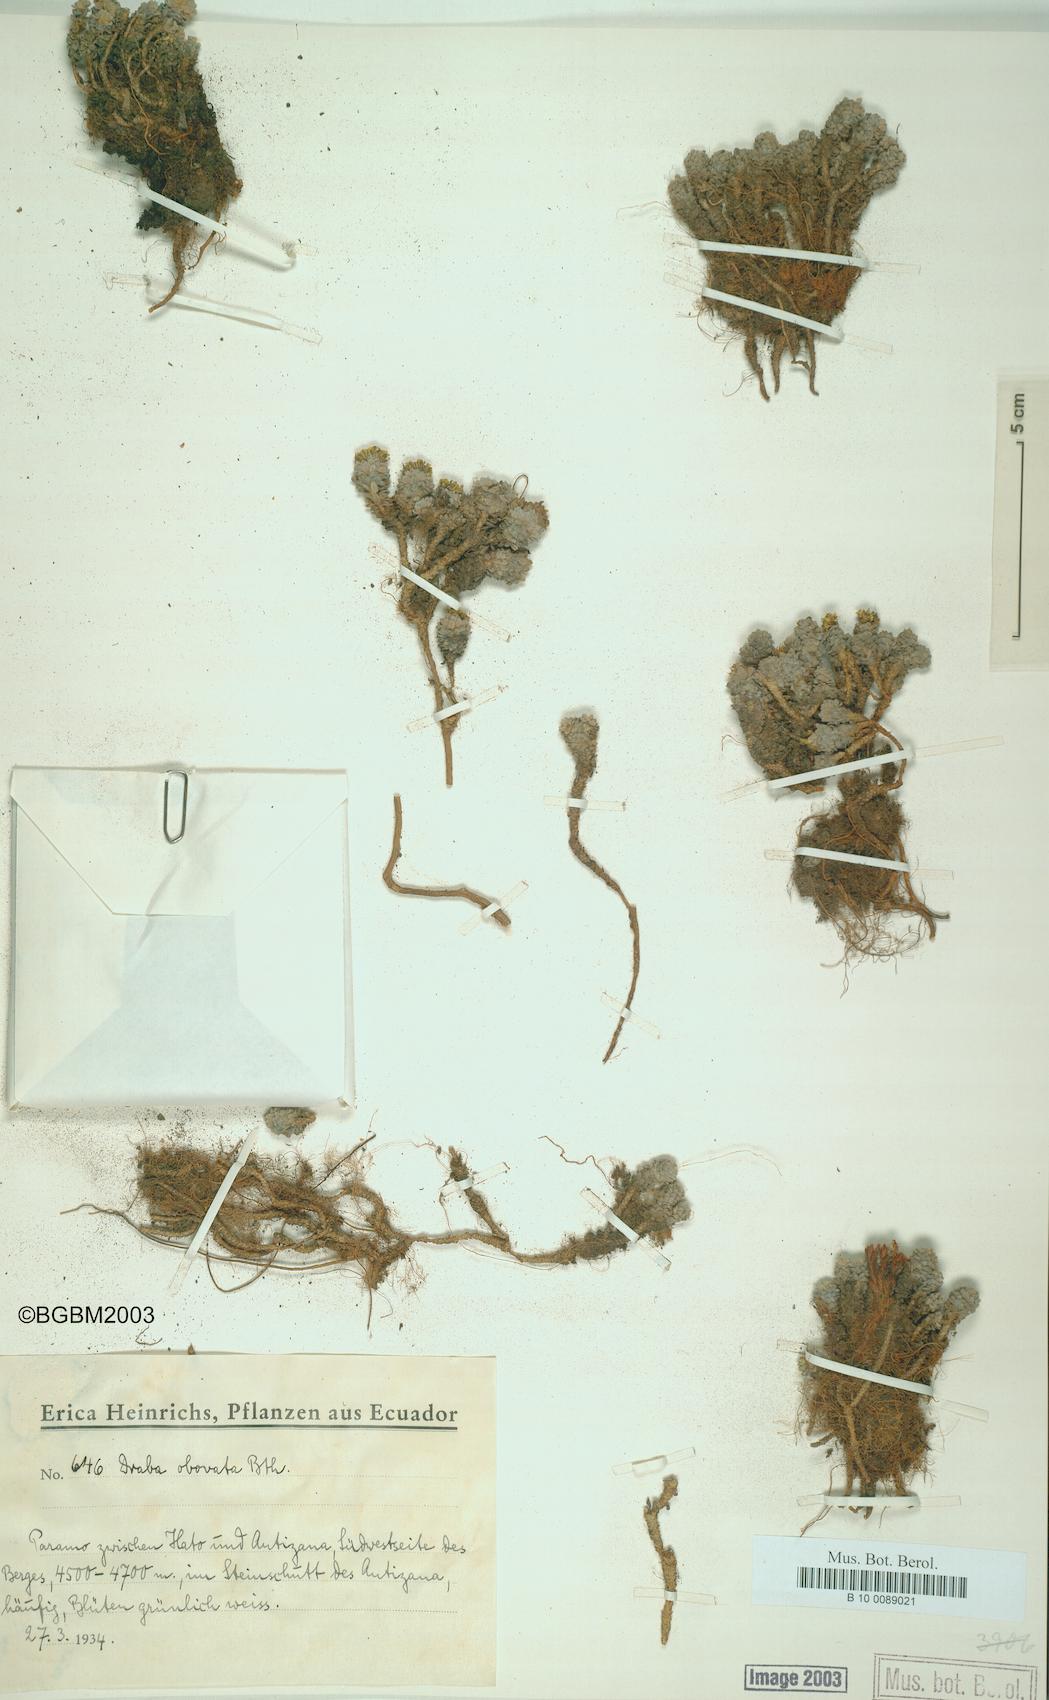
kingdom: Plantae
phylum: Tracheophyta
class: Magnoliopsida
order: Brassicales
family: Brassicaceae
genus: Draba
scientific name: Draba obovata
